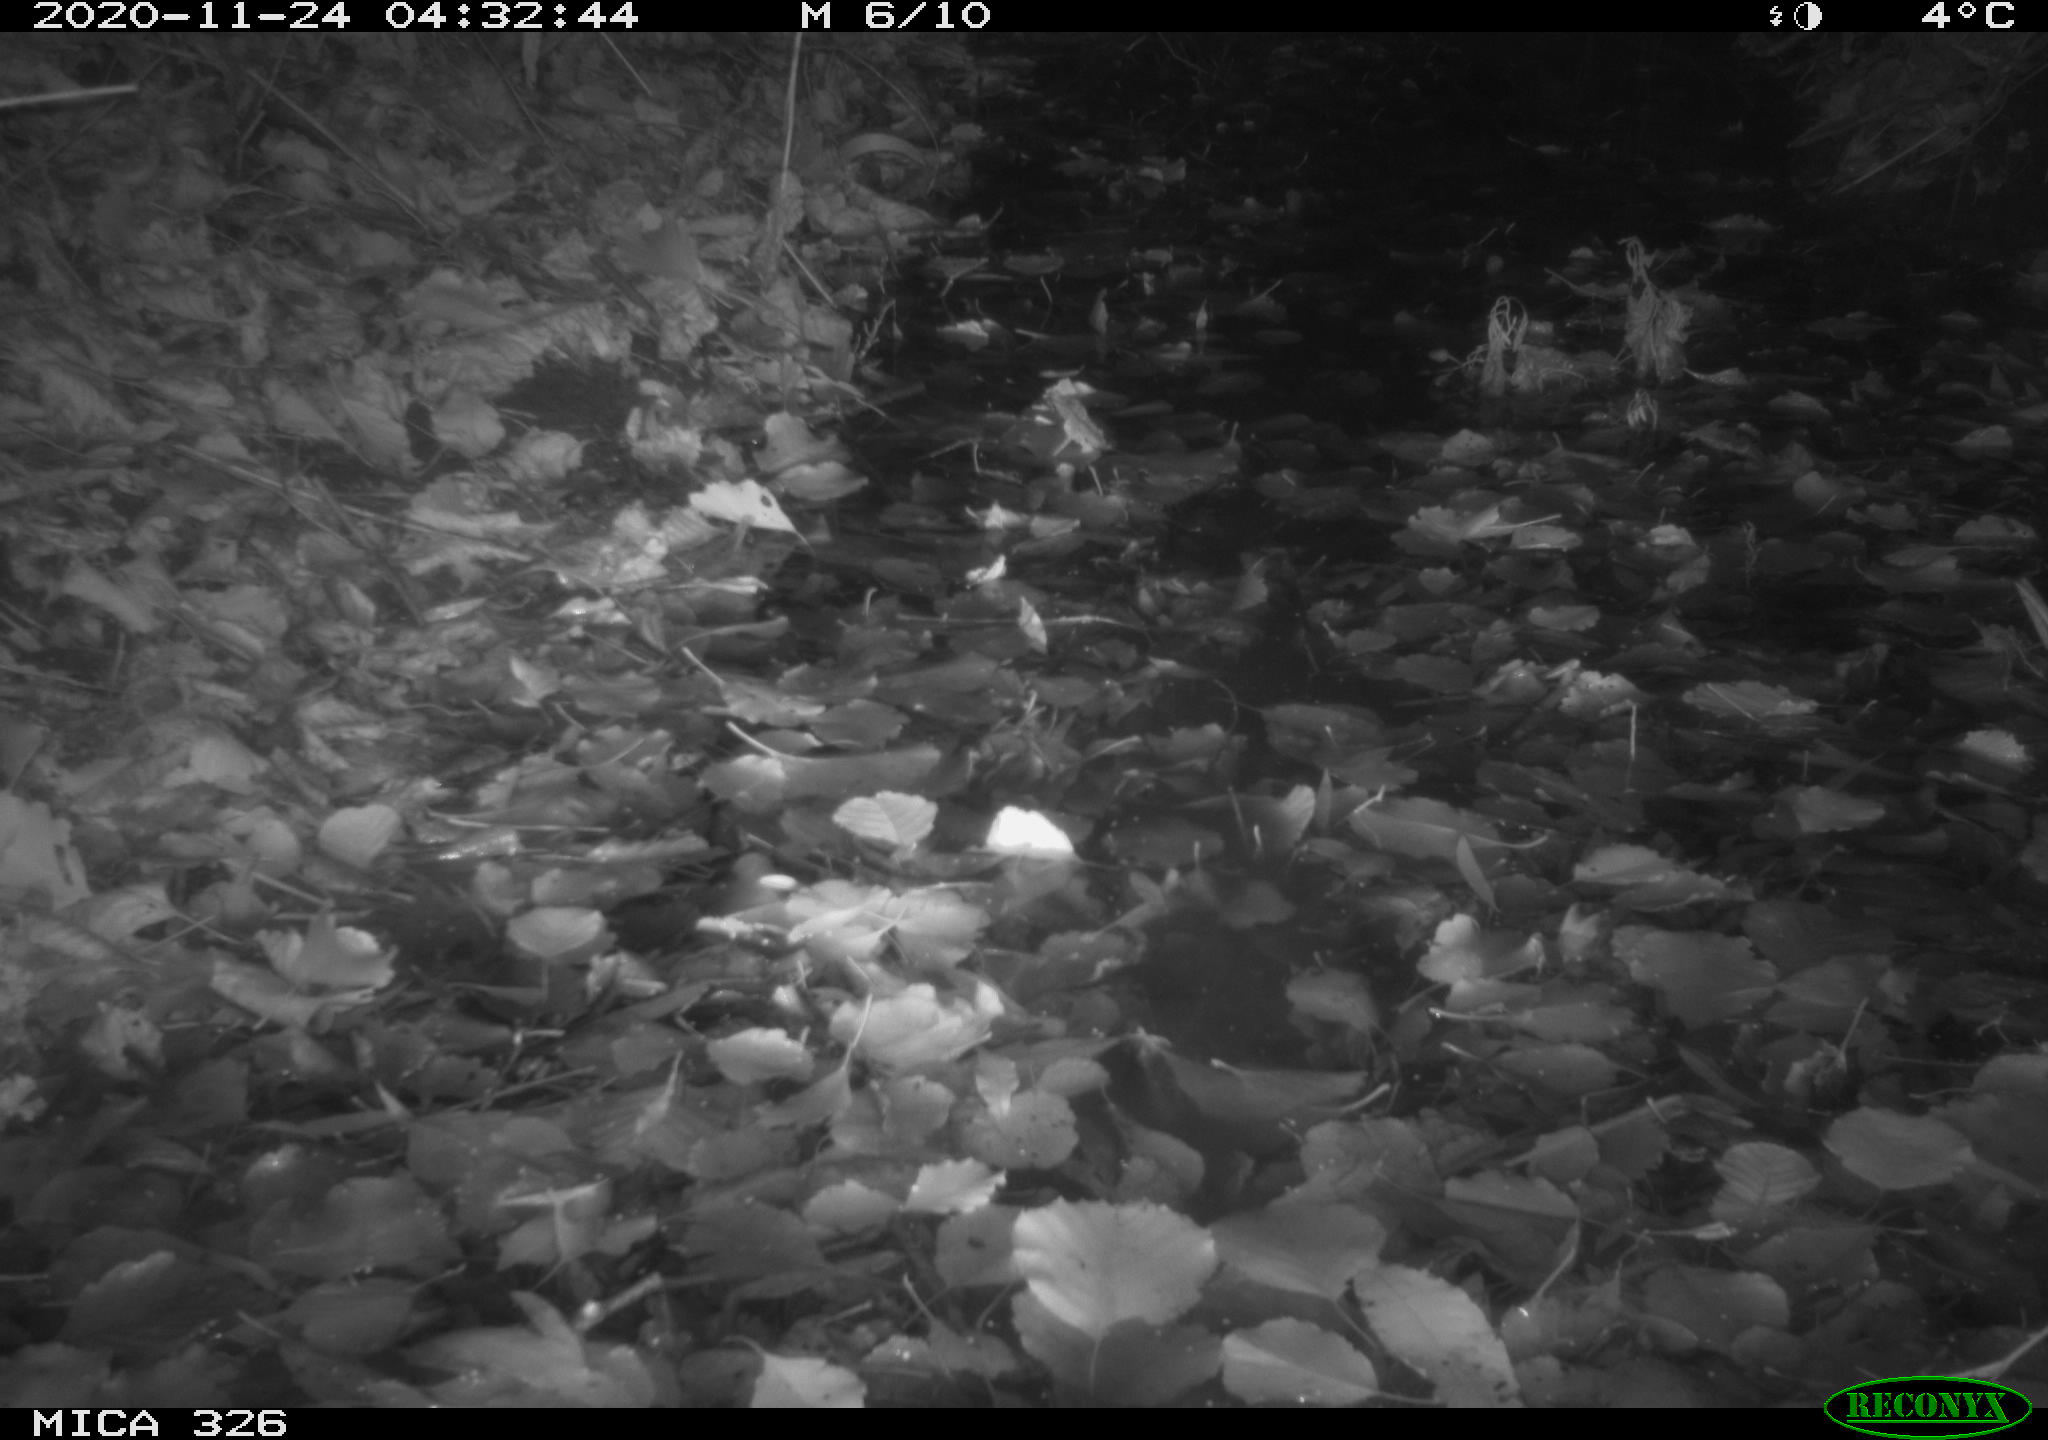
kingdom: Animalia
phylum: Chordata
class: Mammalia
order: Rodentia
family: Myocastoridae
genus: Myocastor
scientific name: Myocastor coypus
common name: Coypu
